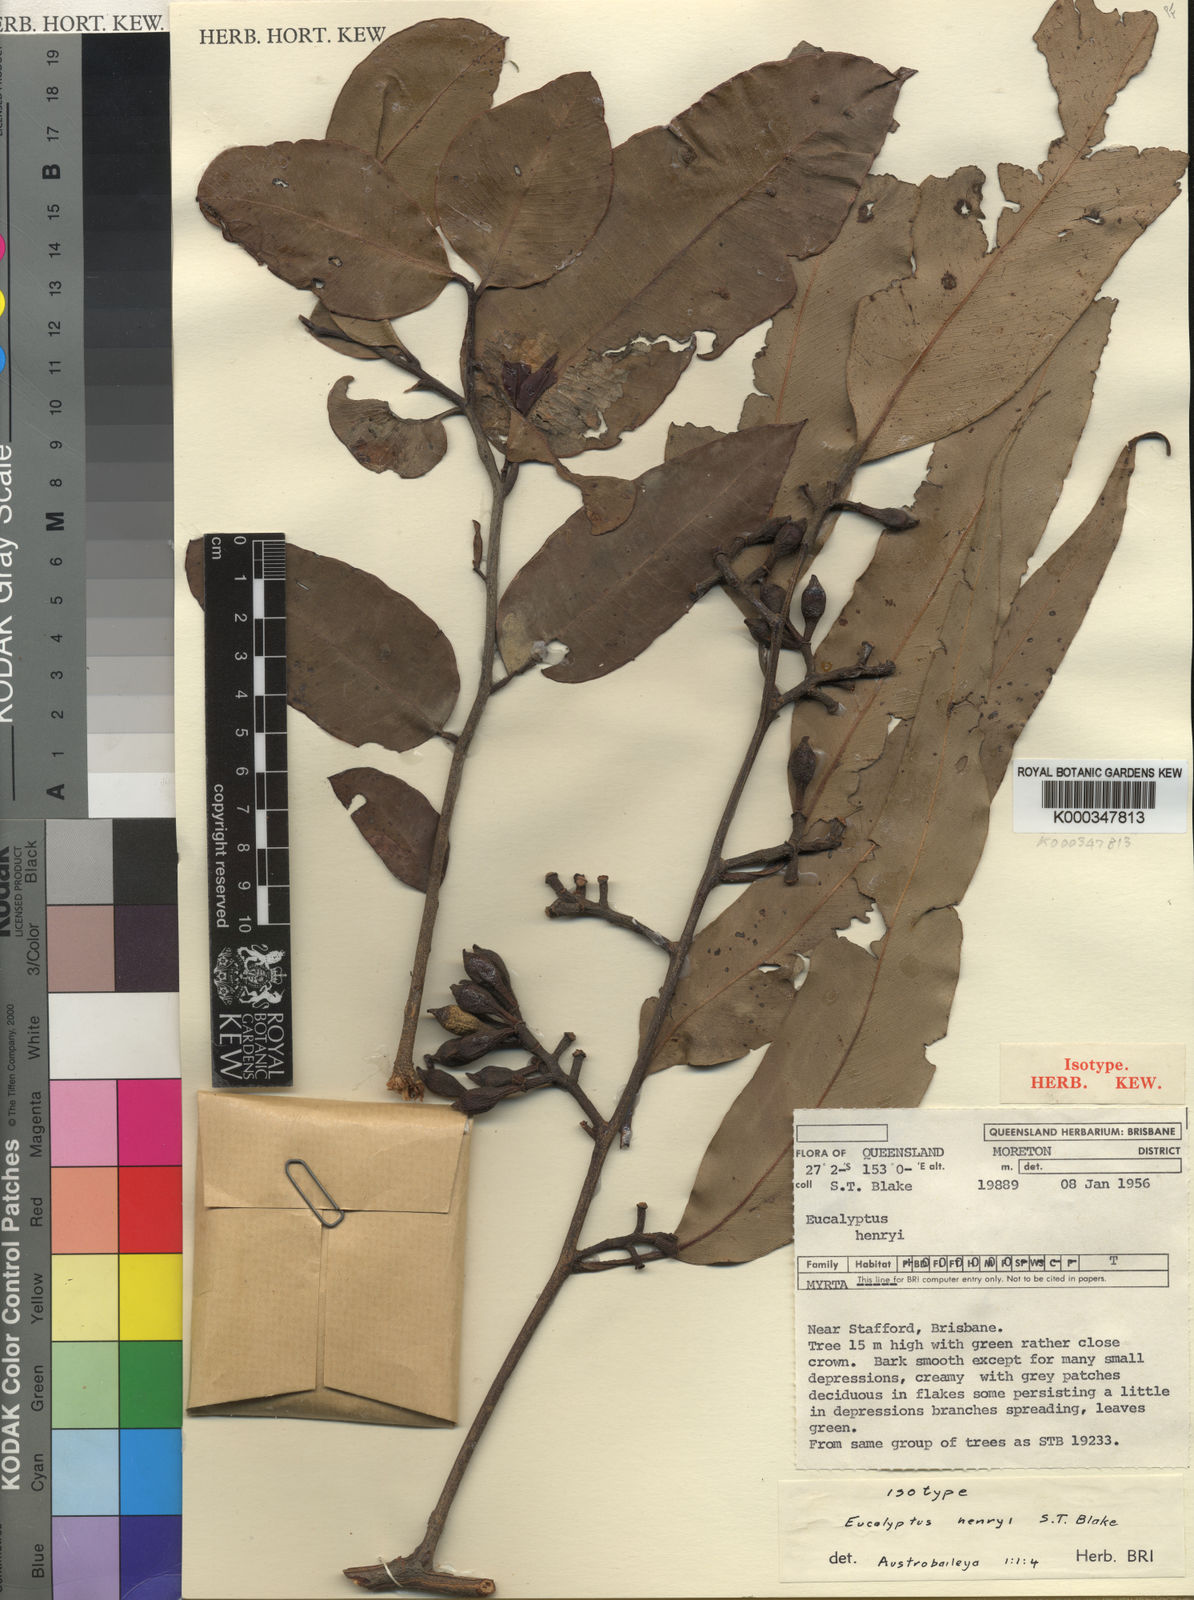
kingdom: Plantae
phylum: Tracheophyta
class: Magnoliopsida
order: Myrtales
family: Myrtaceae
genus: Corymbia
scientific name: Corymbia henryi
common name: Large-leaved spotted gum
